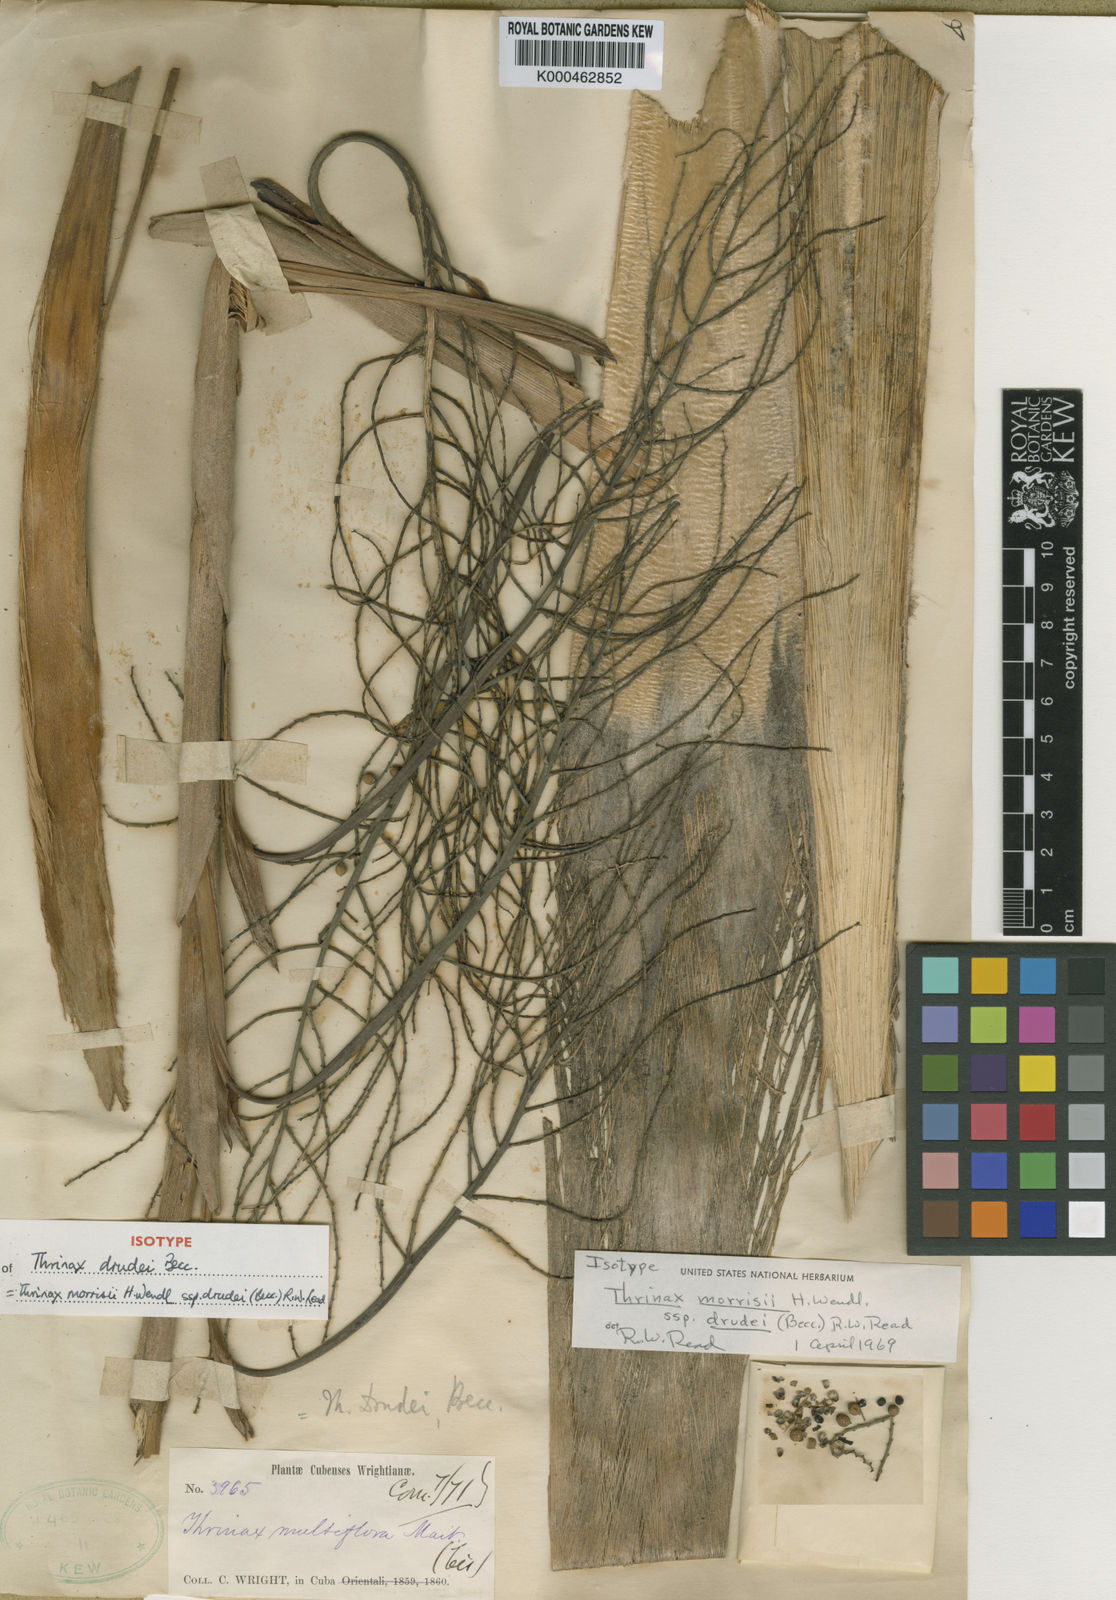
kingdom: Plantae
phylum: Tracheophyta
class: Liliopsida
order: Arecales
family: Arecaceae
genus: Leucothrinax
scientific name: Leucothrinax morrisii
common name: Key palm
